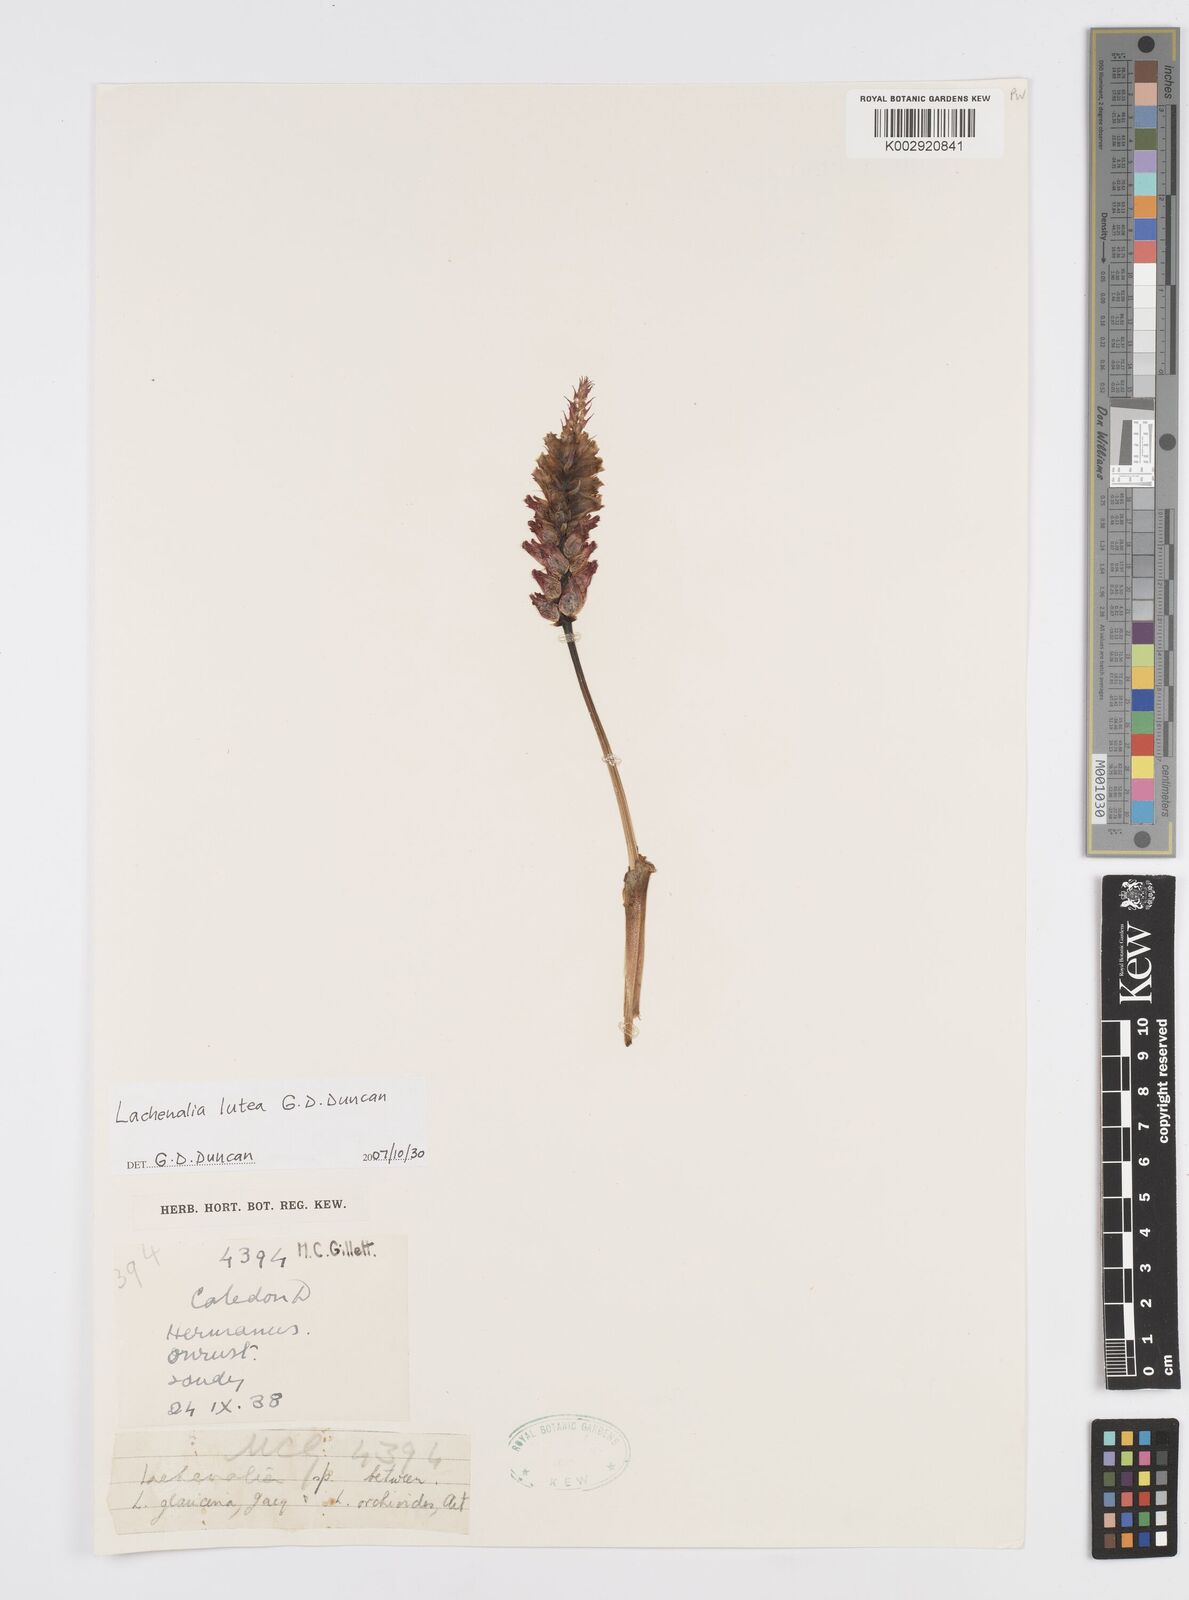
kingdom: Plantae
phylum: Tracheophyta
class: Liliopsida
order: Asparagales
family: Asparagaceae
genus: Lachenalia
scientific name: Lachenalia lutea
